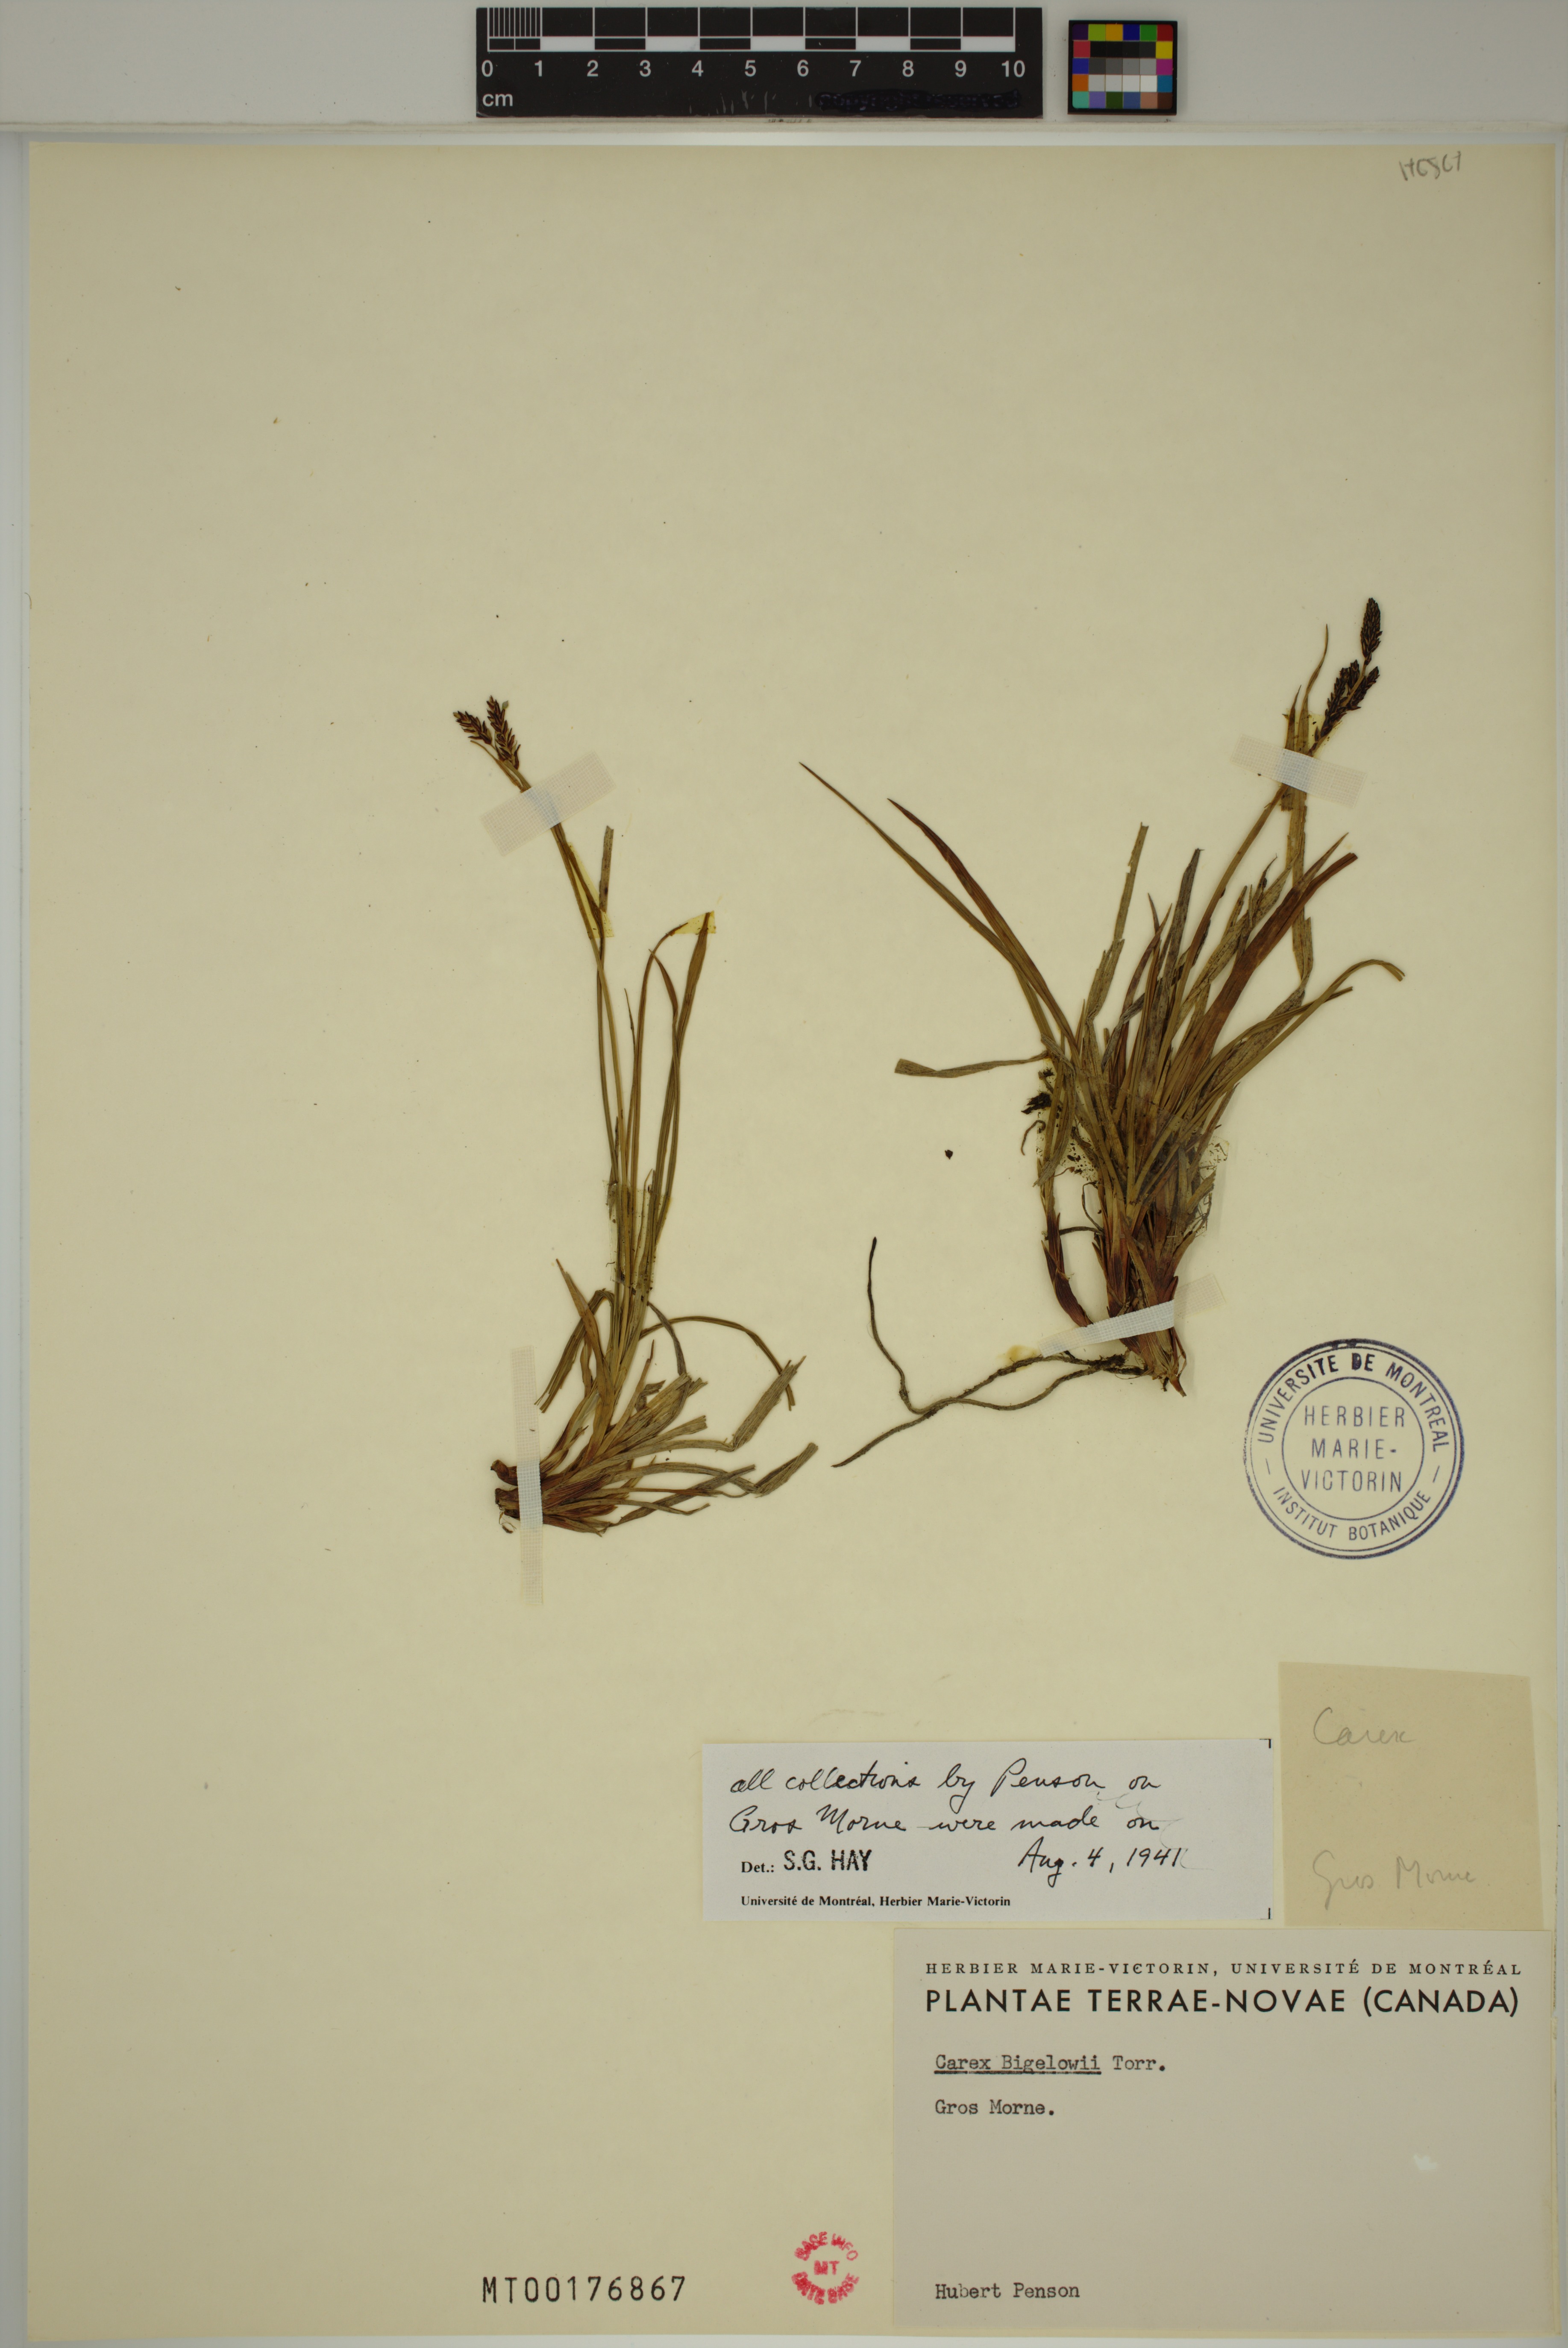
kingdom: Plantae
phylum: Tracheophyta
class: Liliopsida
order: Poales
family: Cyperaceae
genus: Carex
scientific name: Carex bigelowii
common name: Stiff sedge
